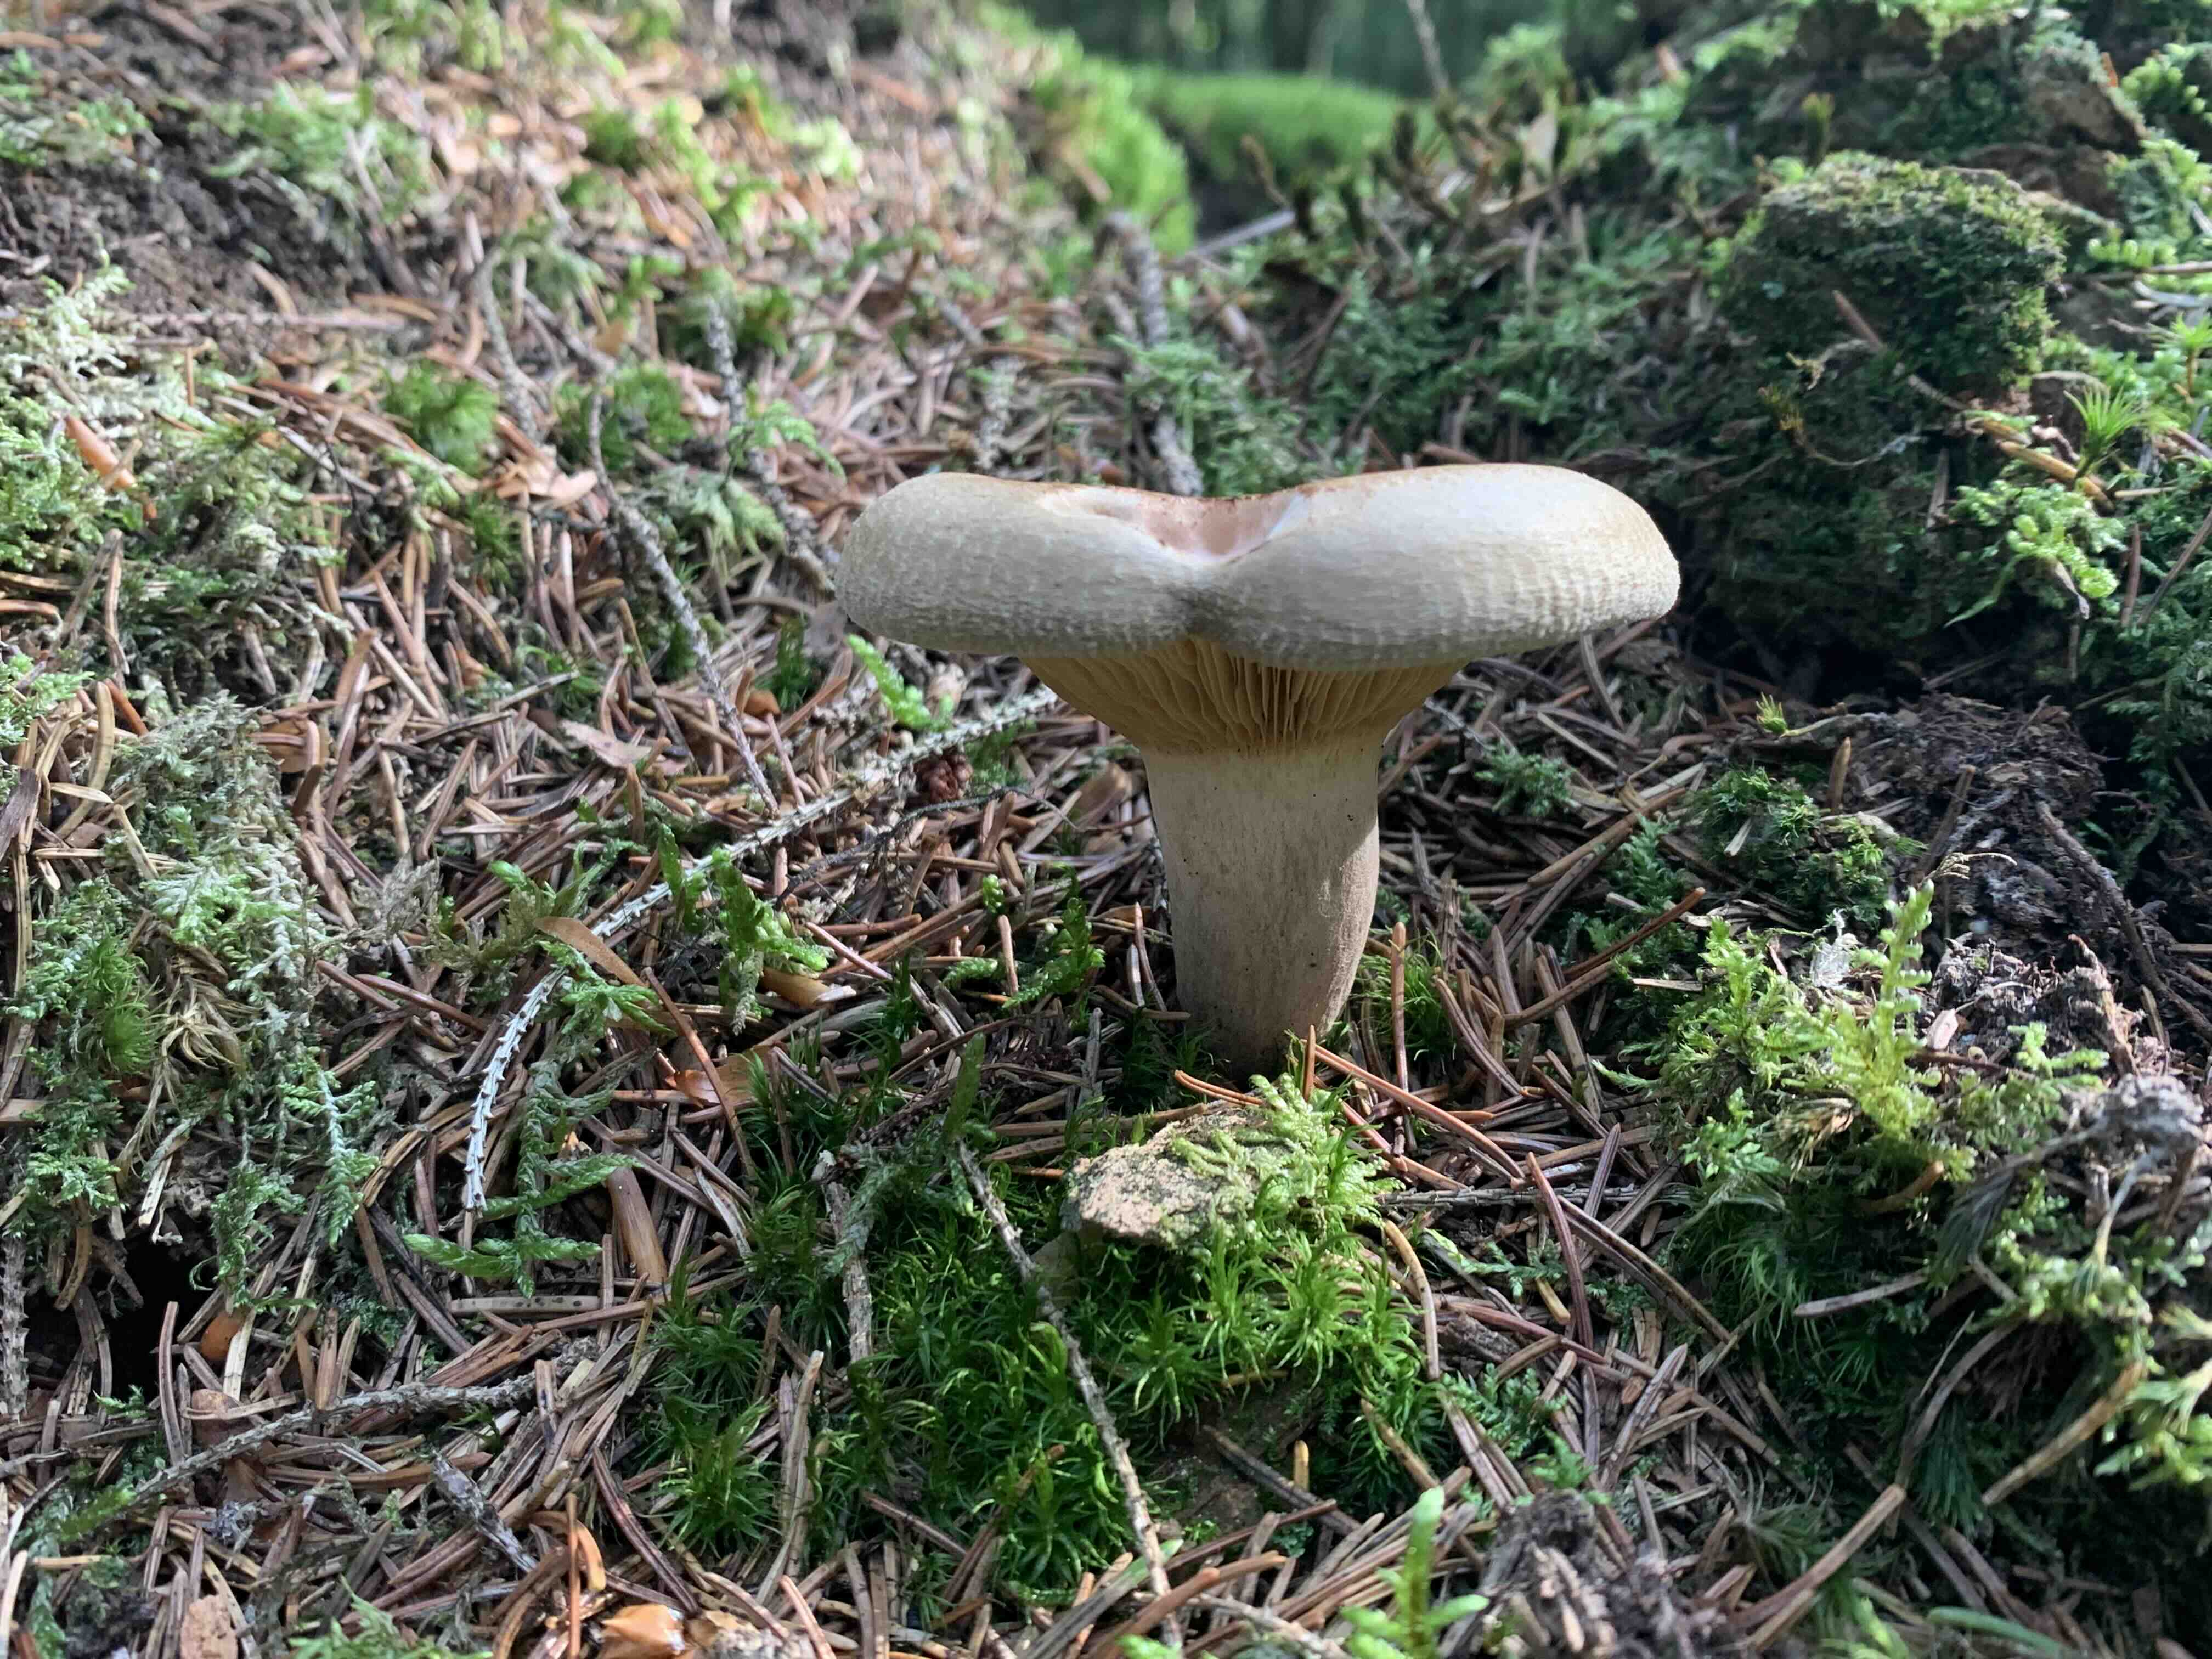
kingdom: Fungi
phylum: Basidiomycota
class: Agaricomycetes
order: Boletales
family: Paxillaceae
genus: Paxillus
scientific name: Paxillus involutus
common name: almindelig netbladhat
